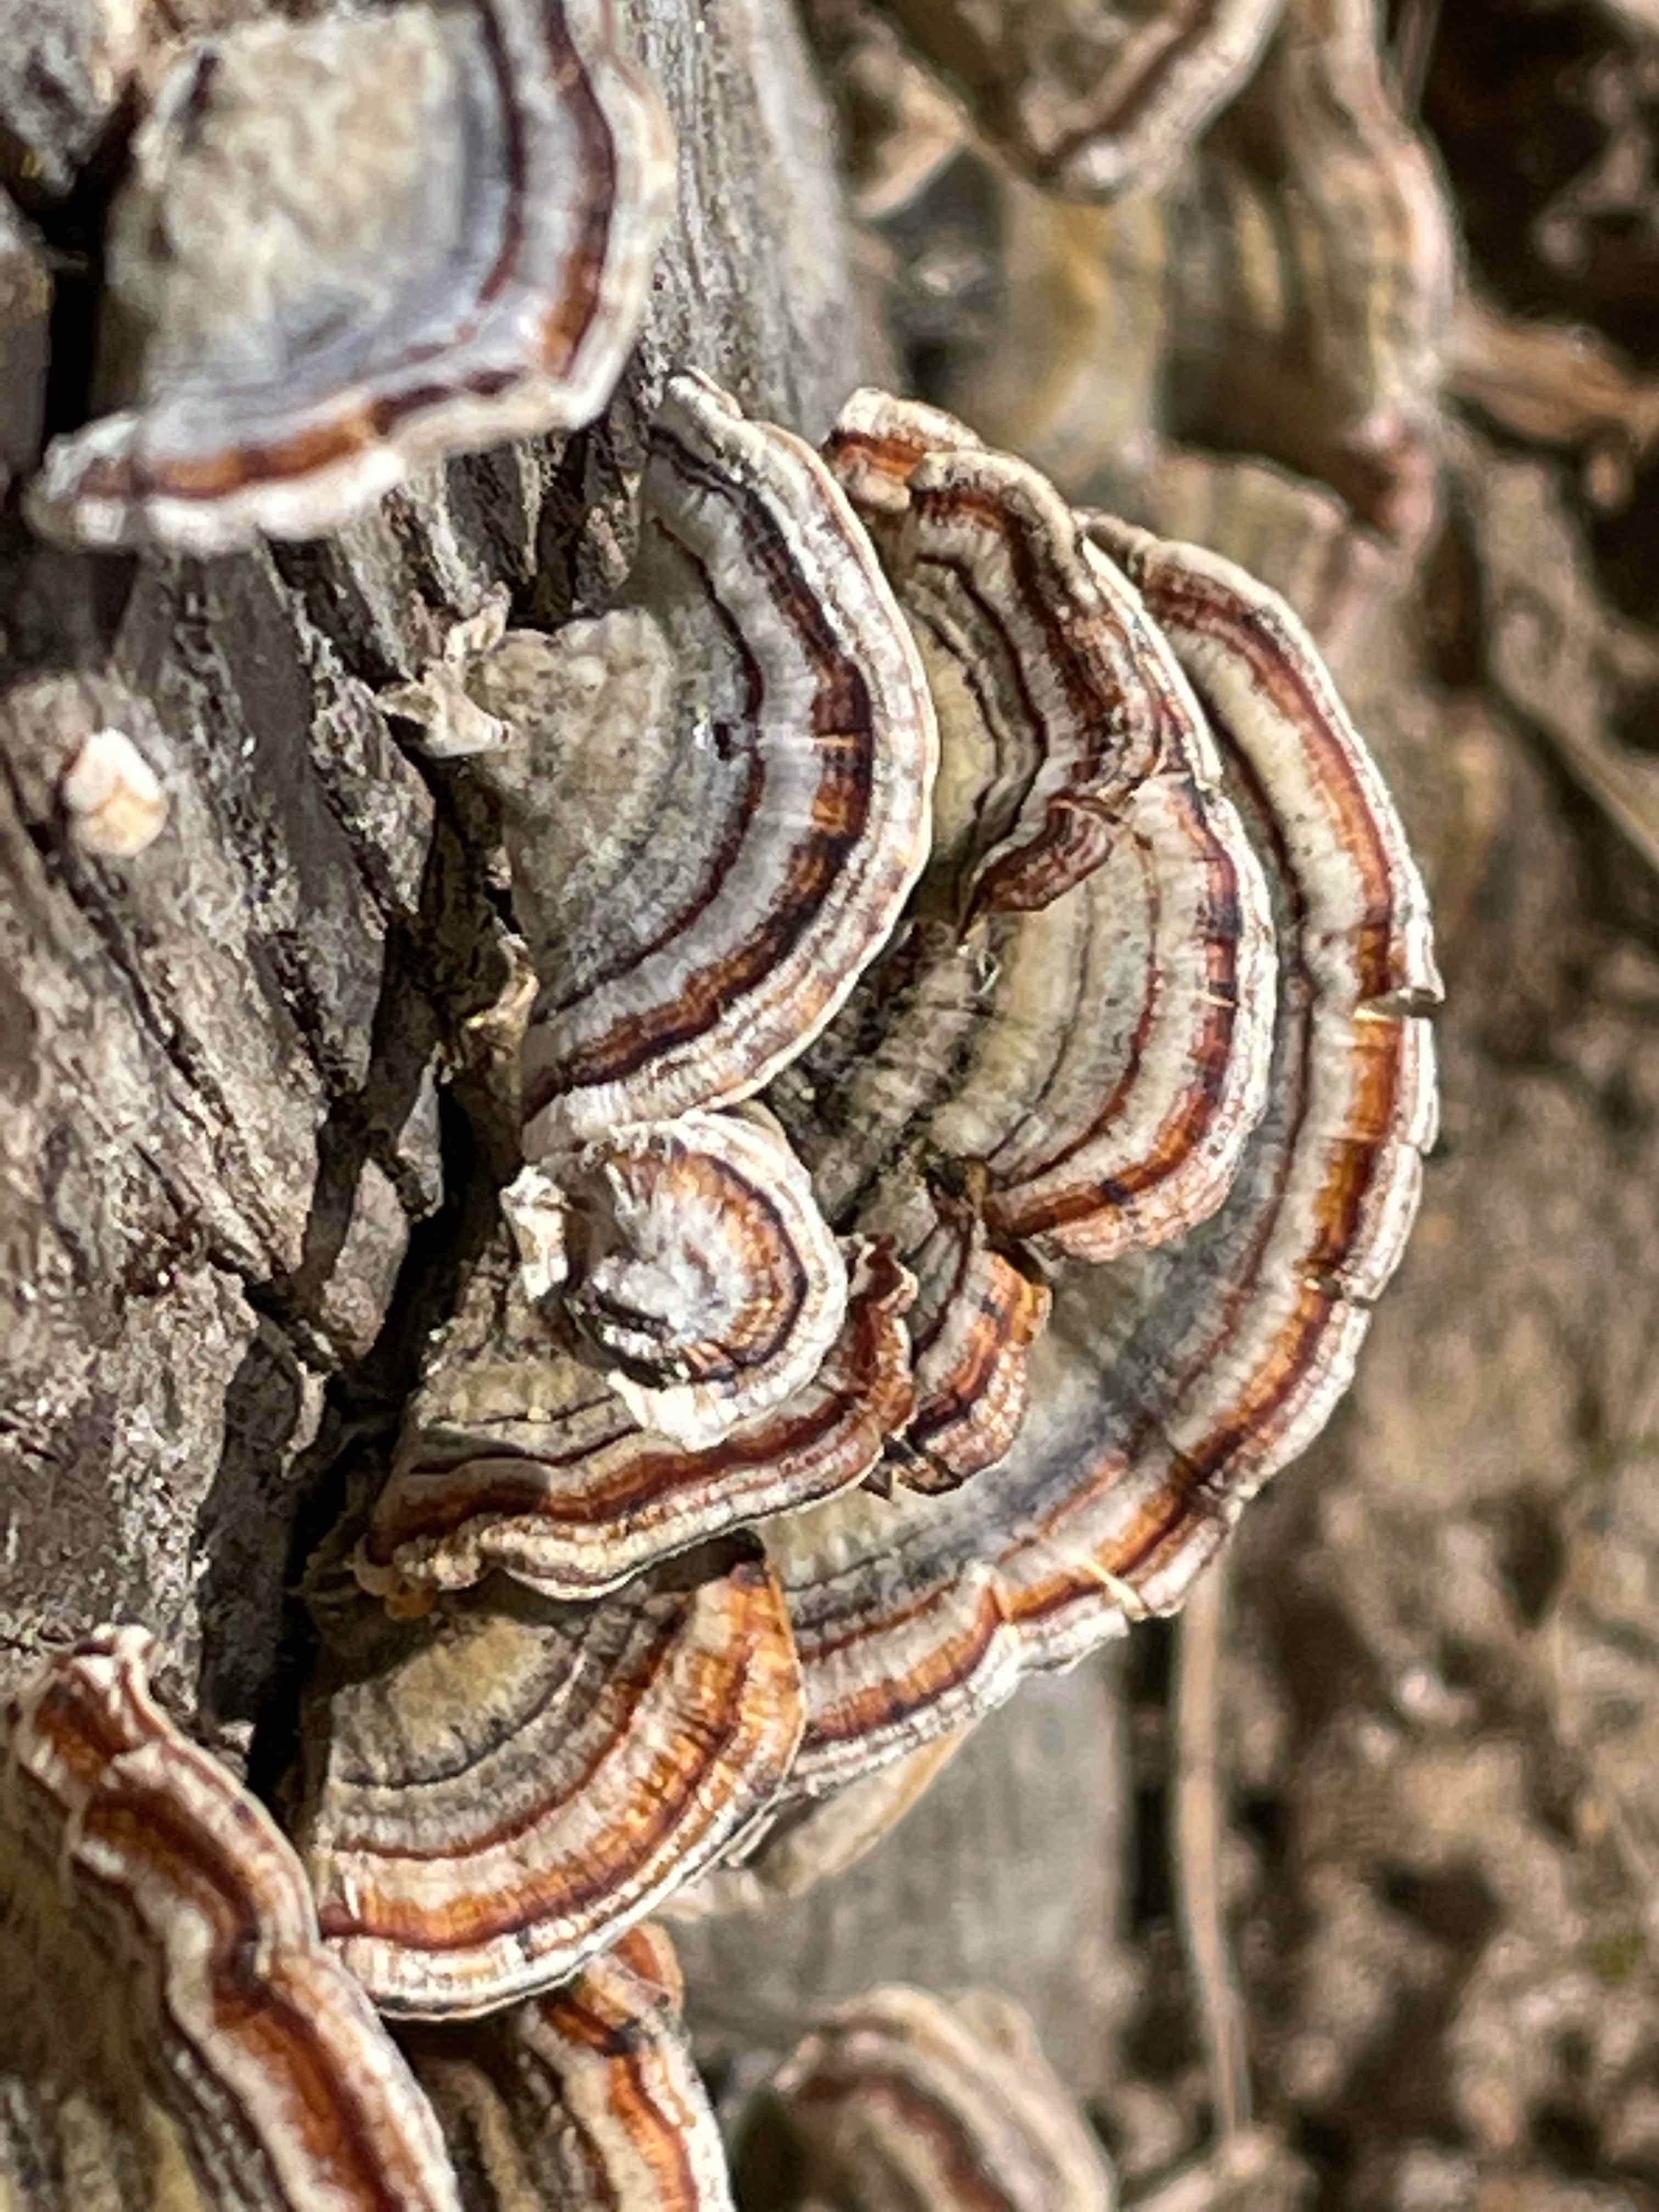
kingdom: Fungi
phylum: Basidiomycota
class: Agaricomycetes
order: Polyporales
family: Polyporaceae
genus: Trametes
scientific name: Trametes versicolor
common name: broget læderporesvamp
